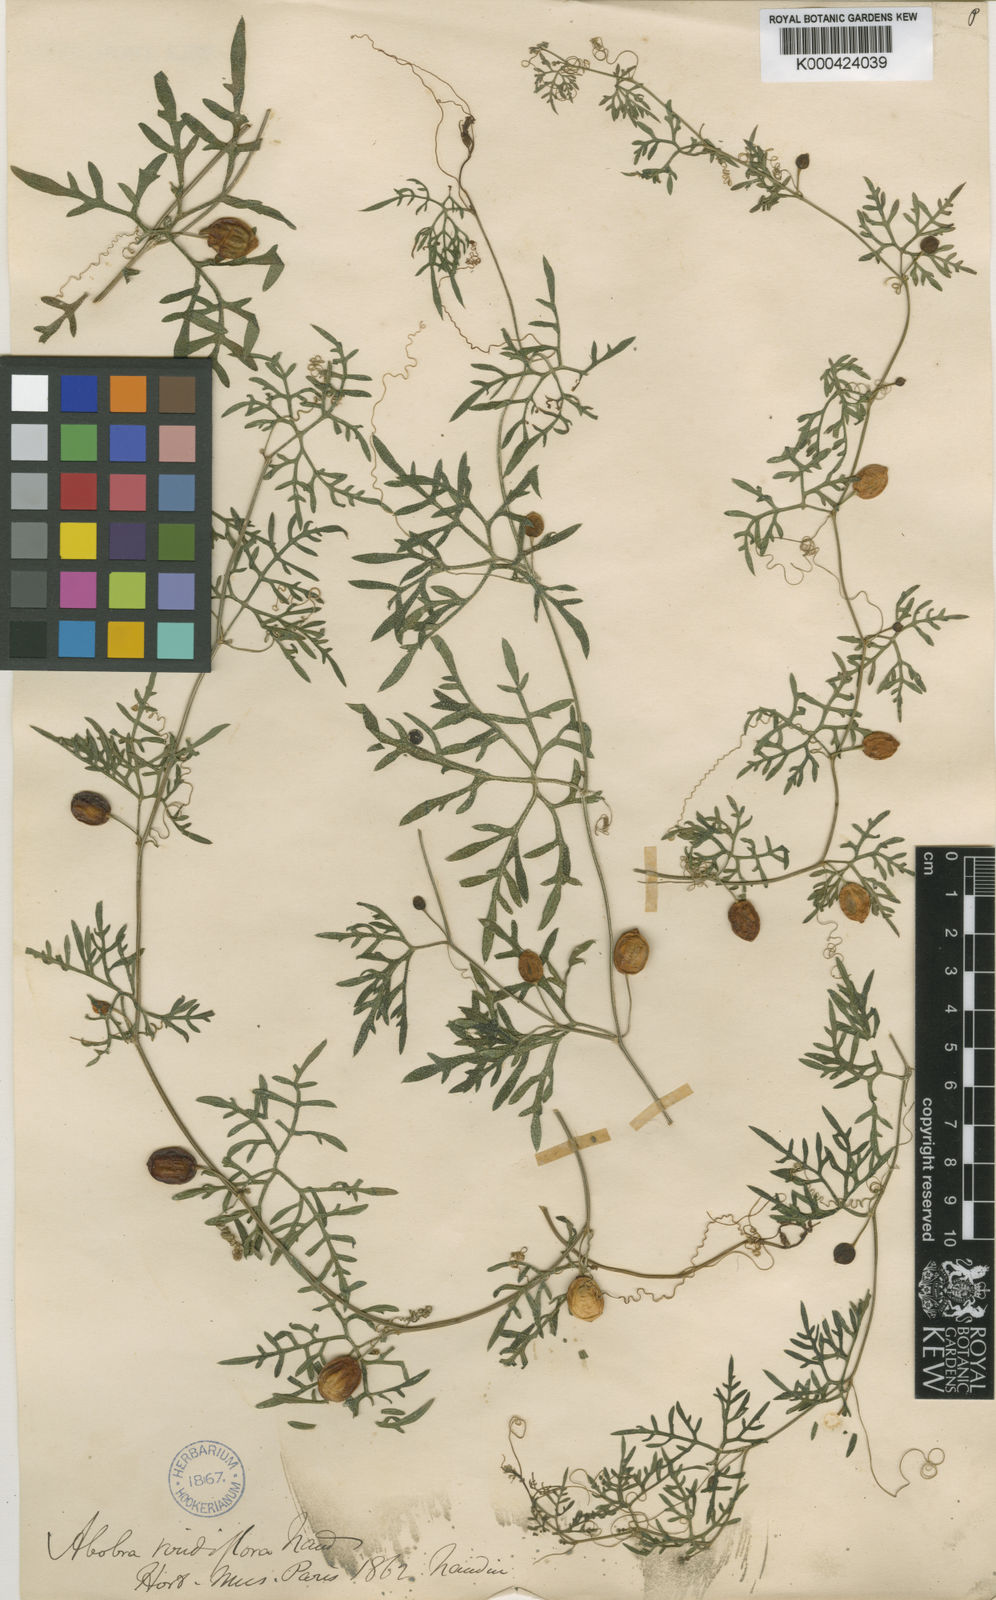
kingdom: Plantae
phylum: Tracheophyta
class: Magnoliopsida
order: Cucurbitales
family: Cucurbitaceae
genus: Abobra
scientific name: Abobra tenuifolia
